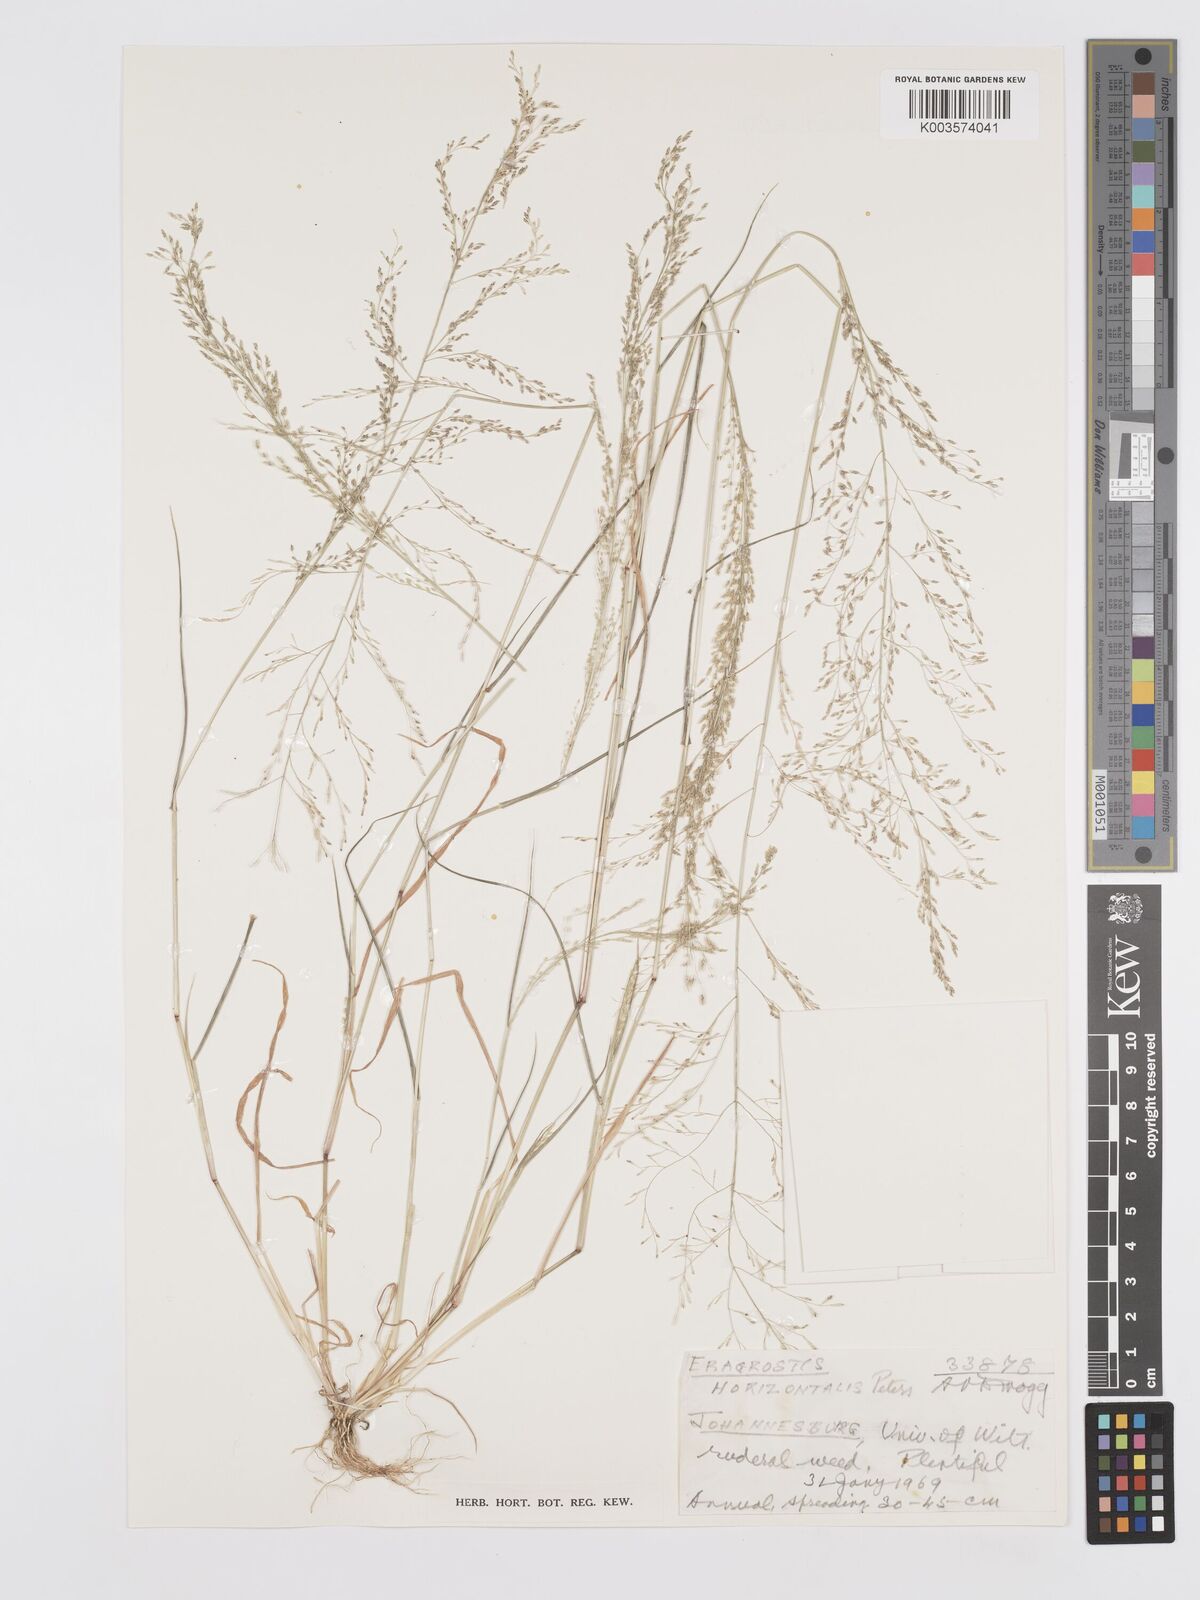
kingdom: Plantae
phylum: Tracheophyta
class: Liliopsida
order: Poales
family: Poaceae
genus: Eragrostis
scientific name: Eragrostis cylindriflora
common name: Cylinderflower lovegrass
